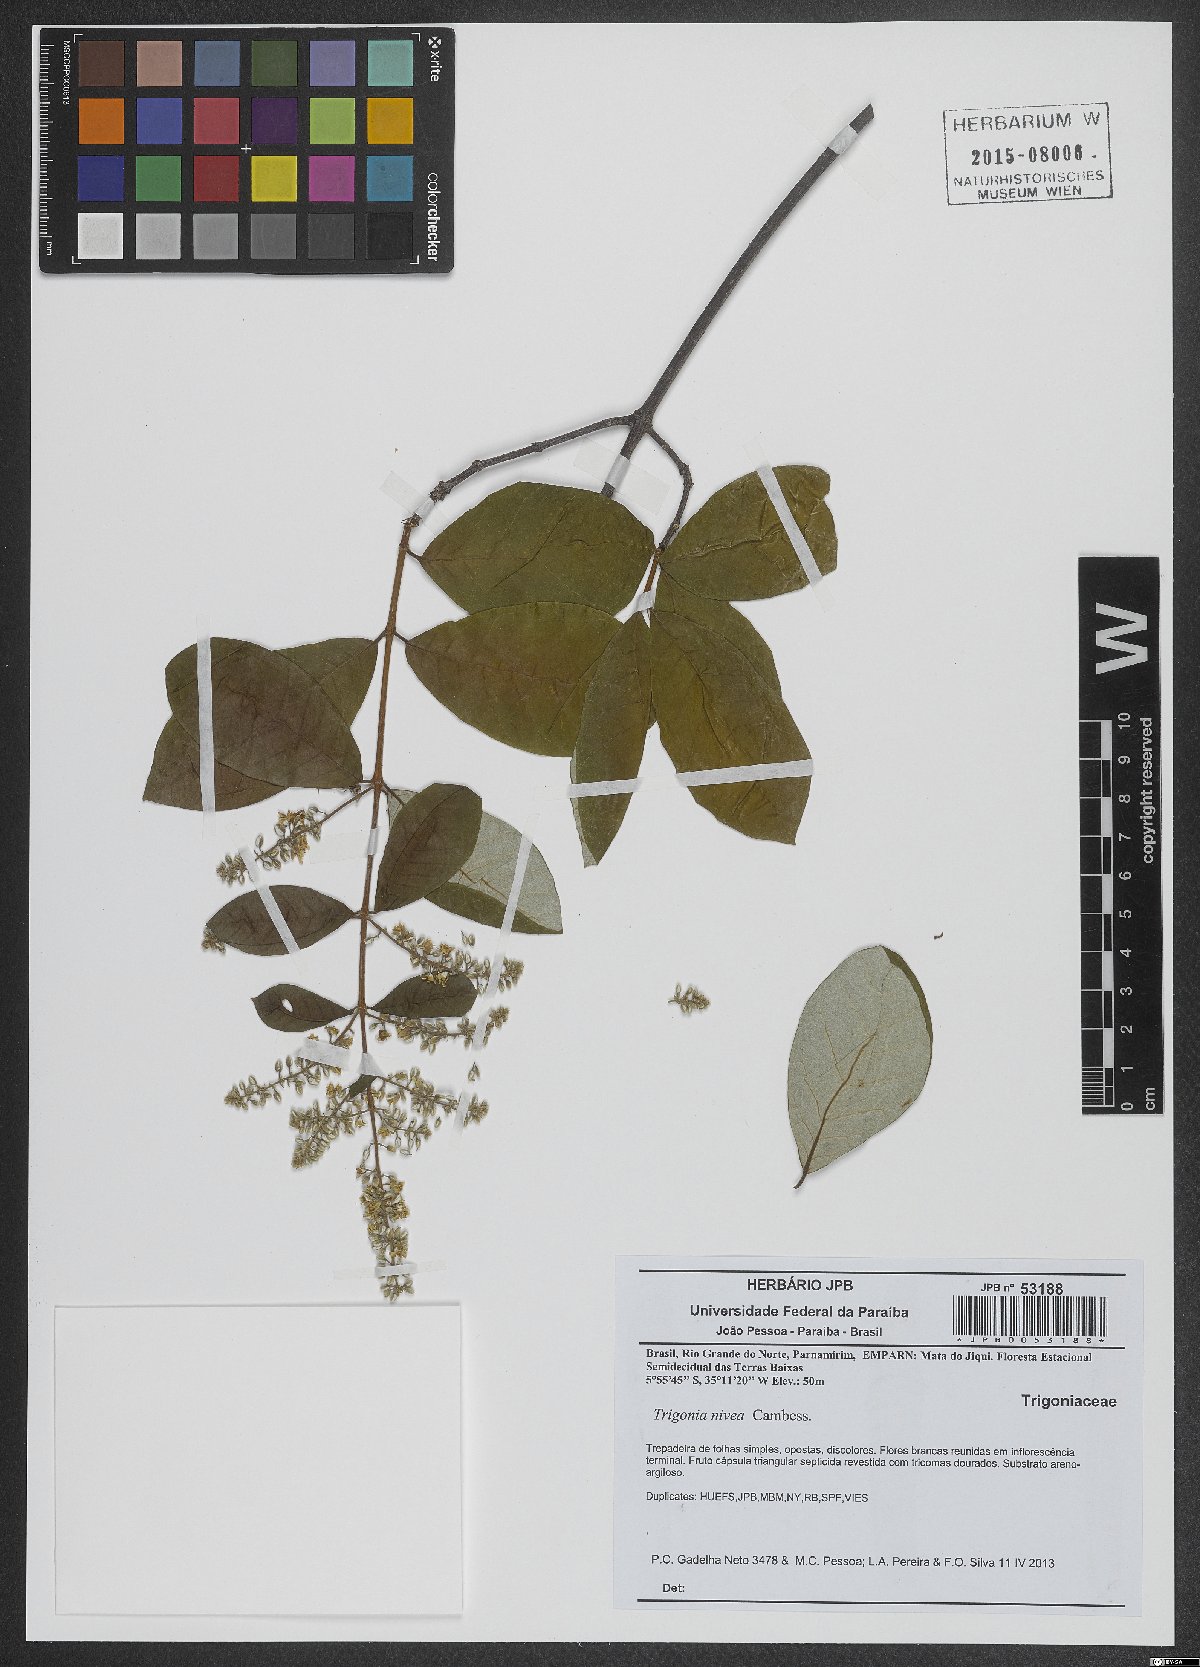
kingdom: Plantae
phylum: Tracheophyta
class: Magnoliopsida
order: Malpighiales
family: Trigoniaceae
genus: Trigonia
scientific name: Trigonia nivea
